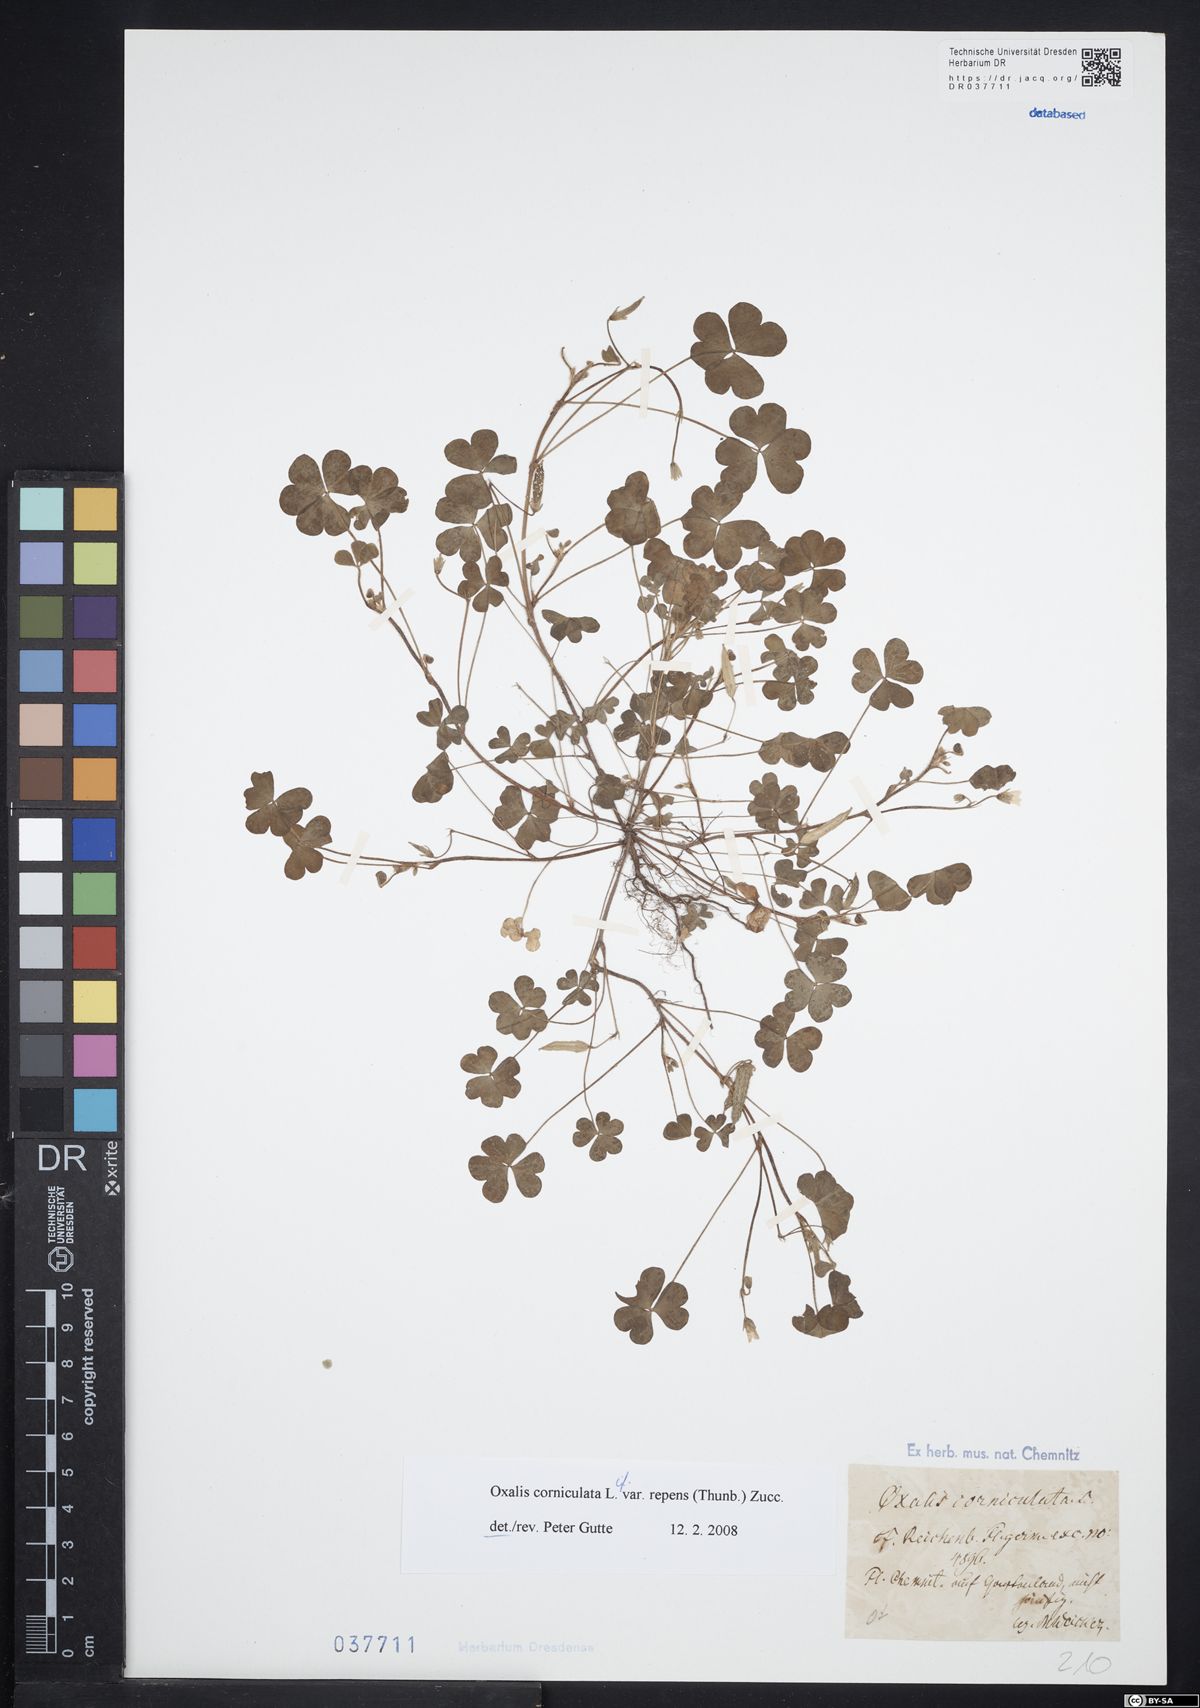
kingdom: Plantae
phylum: Tracheophyta
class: Magnoliopsida
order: Oxalidales
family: Oxalidaceae
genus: Oxalis
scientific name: Oxalis corniculata
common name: Procumbent yellow-sorrel
